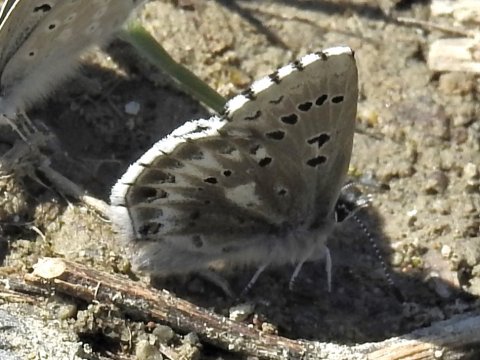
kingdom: Animalia
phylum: Arthropoda
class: Insecta
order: Lepidoptera
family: Lycaenidae
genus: Glaucopsyche
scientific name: Glaucopsyche piasus
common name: Arrowhead Blue
